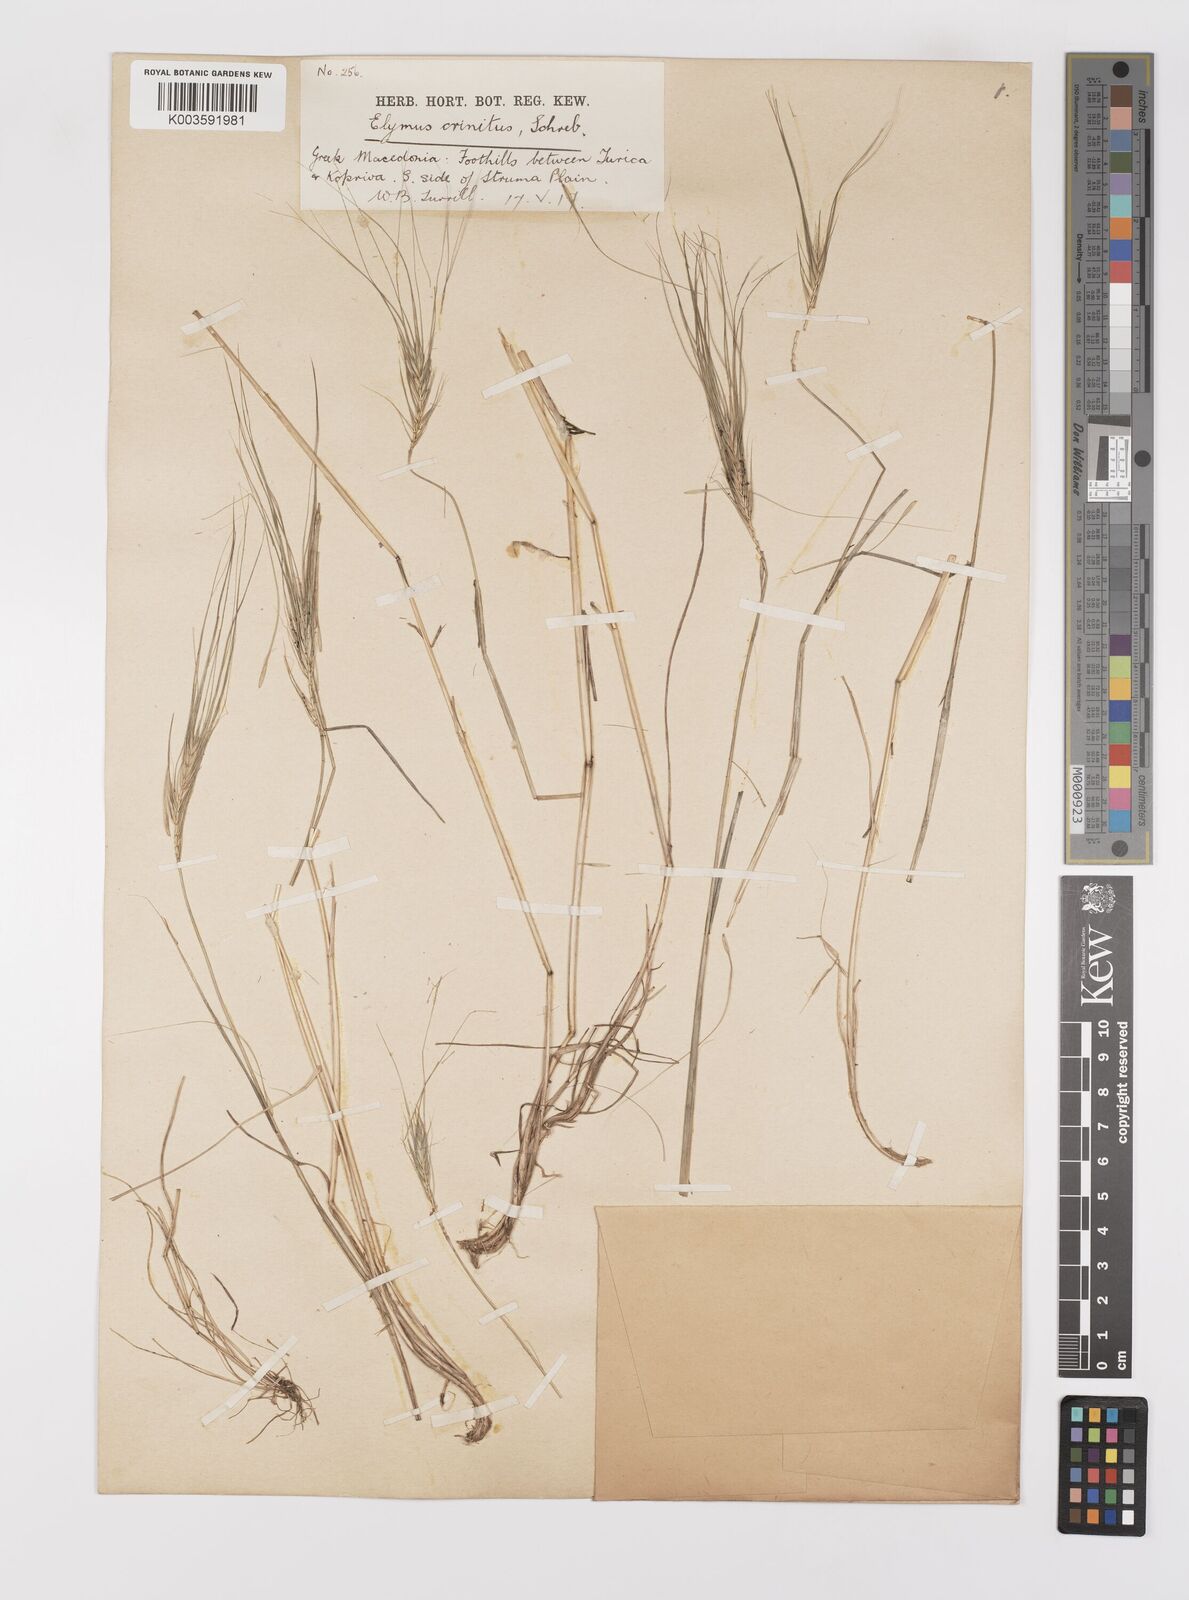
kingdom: Plantae
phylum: Tracheophyta
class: Liliopsida
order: Poales
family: Poaceae
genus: Taeniatherum
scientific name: Taeniatherum caput-medusae
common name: Medusahead
